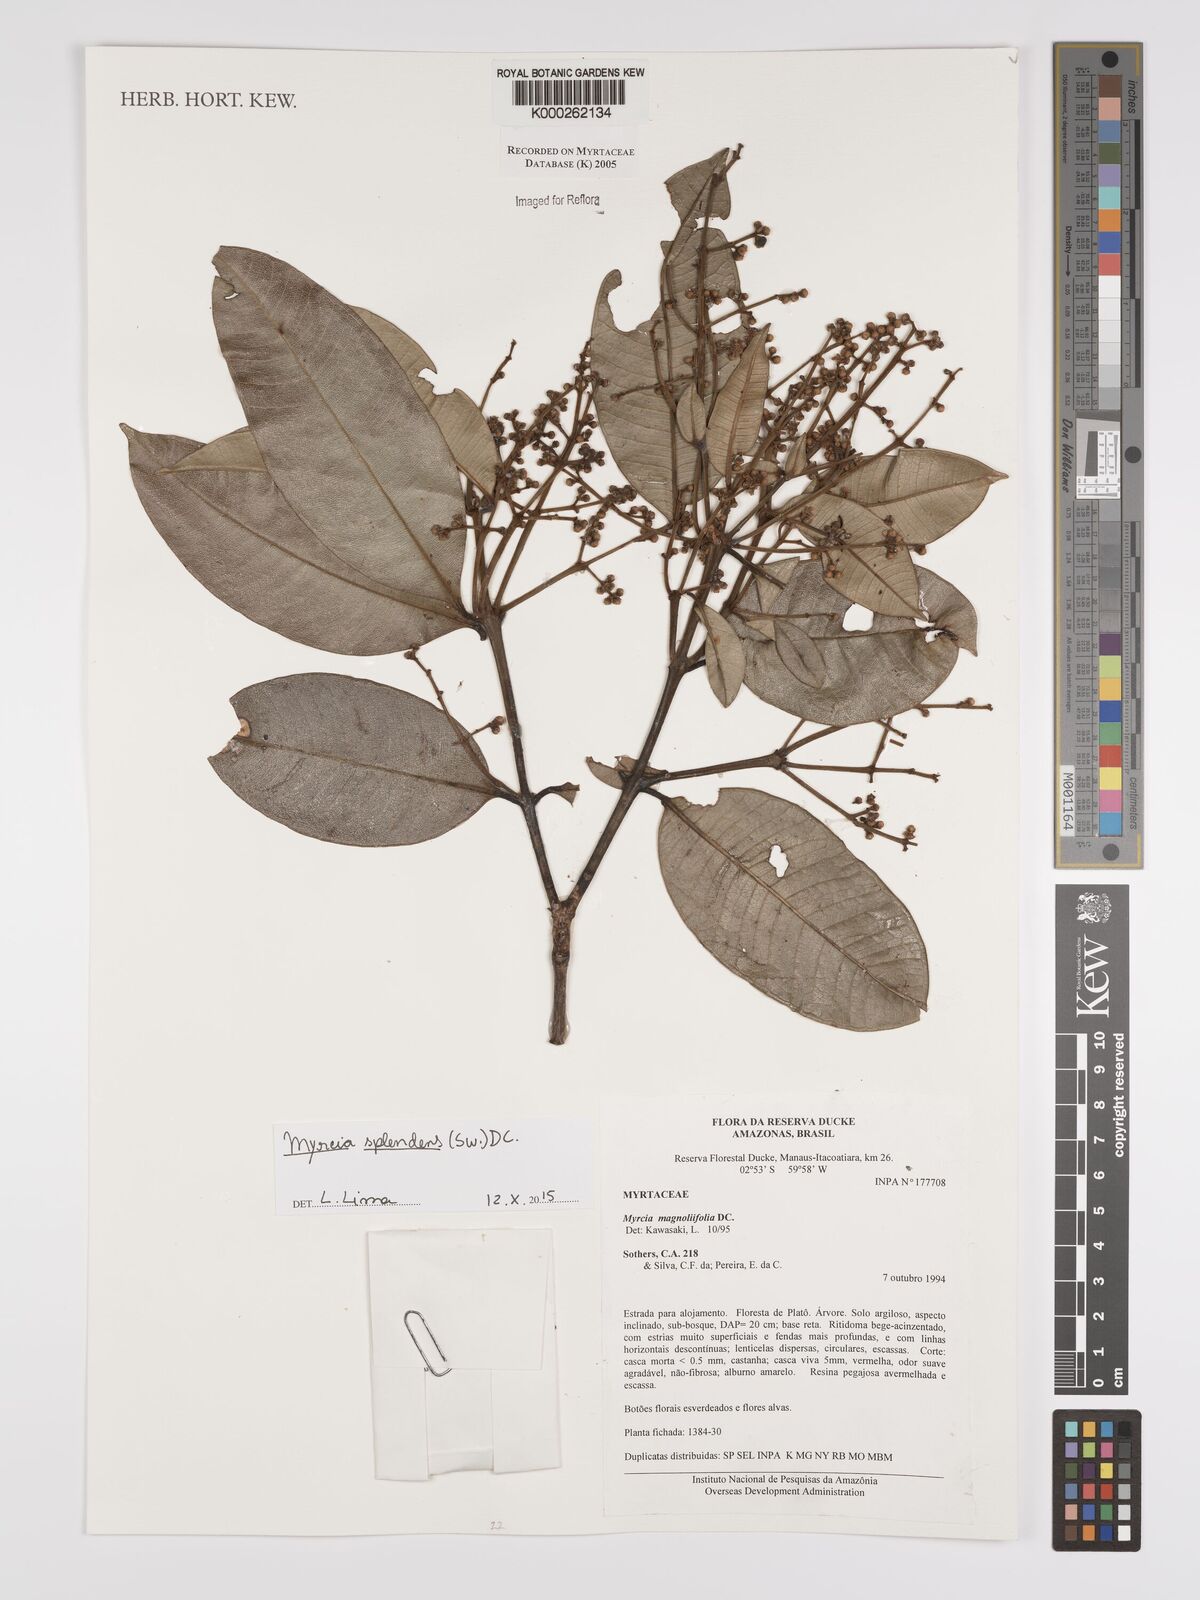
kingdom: Plantae
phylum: Tracheophyta
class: Magnoliopsida
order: Myrtales
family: Myrtaceae
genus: Myrcia
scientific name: Myrcia splendens
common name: Surinam cherry
